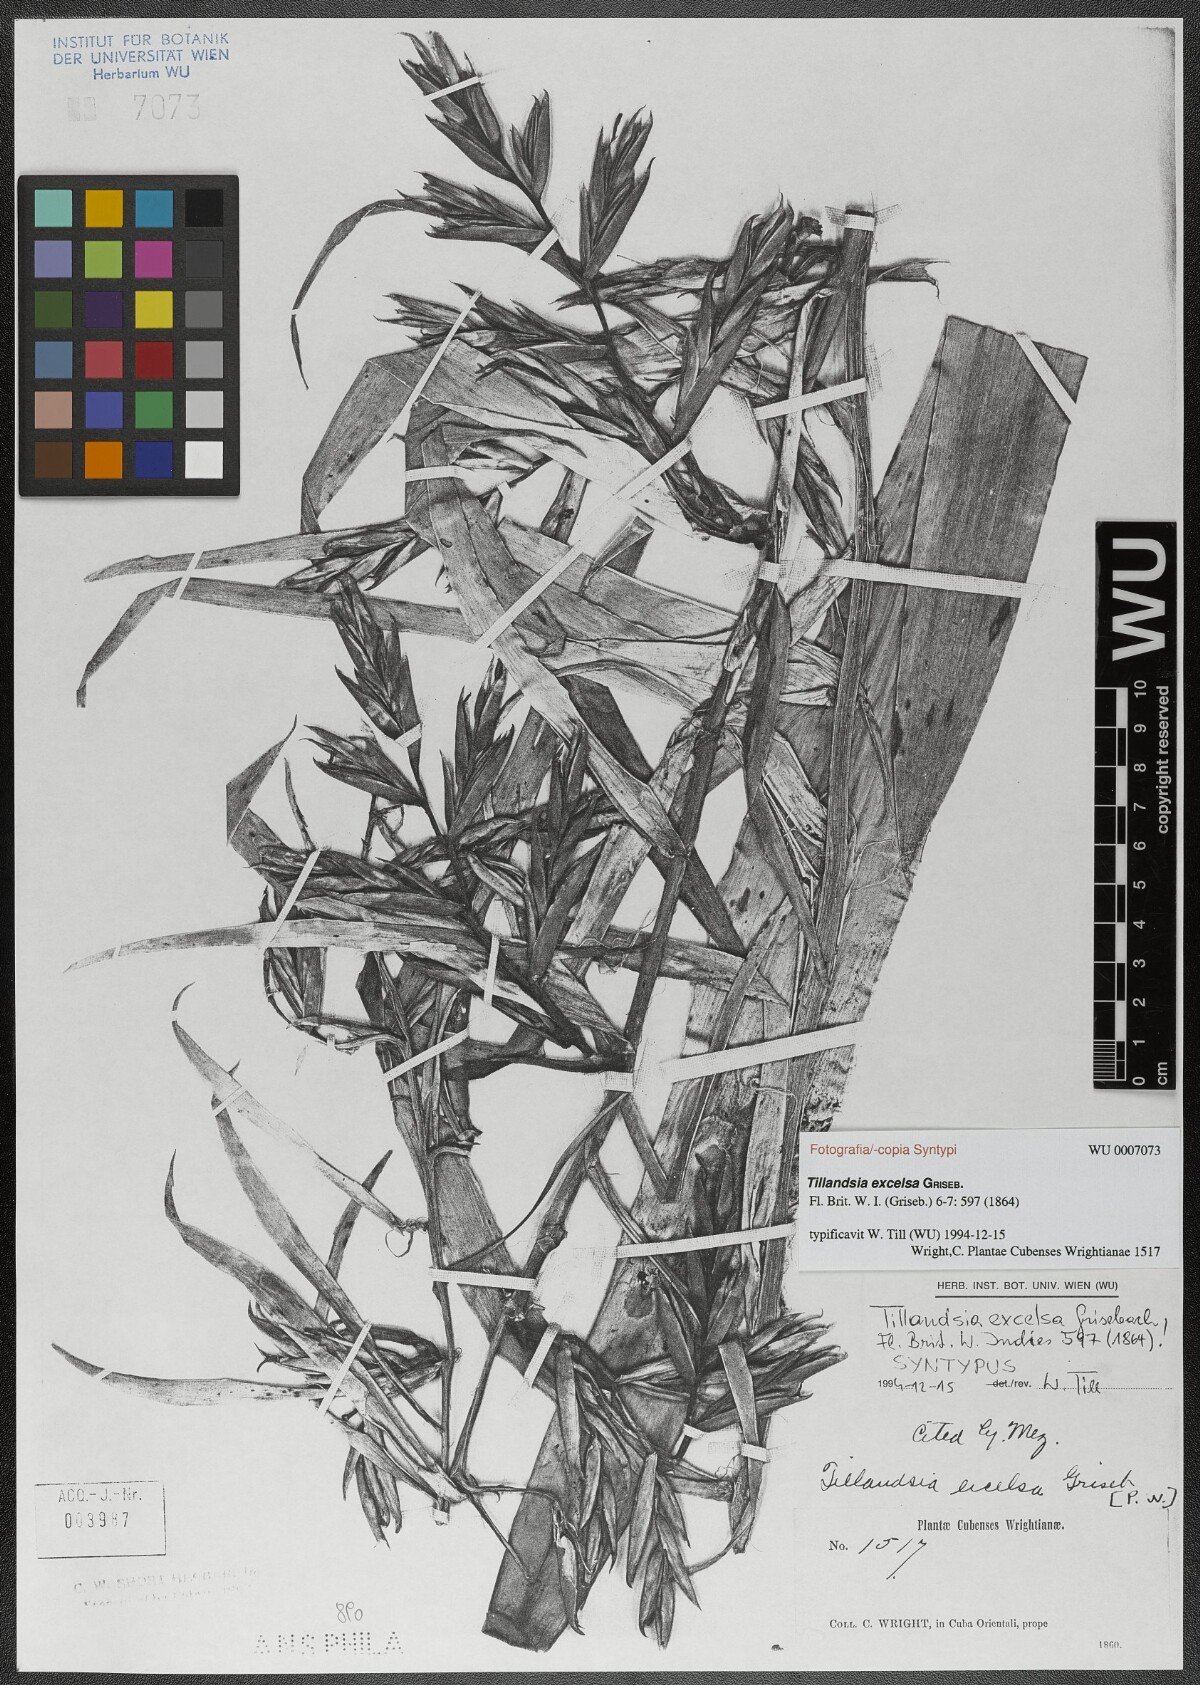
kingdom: Plantae
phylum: Tracheophyta
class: Liliopsida
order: Poales
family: Bromeliaceae
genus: Tillandsia
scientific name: Tillandsia excelsa
